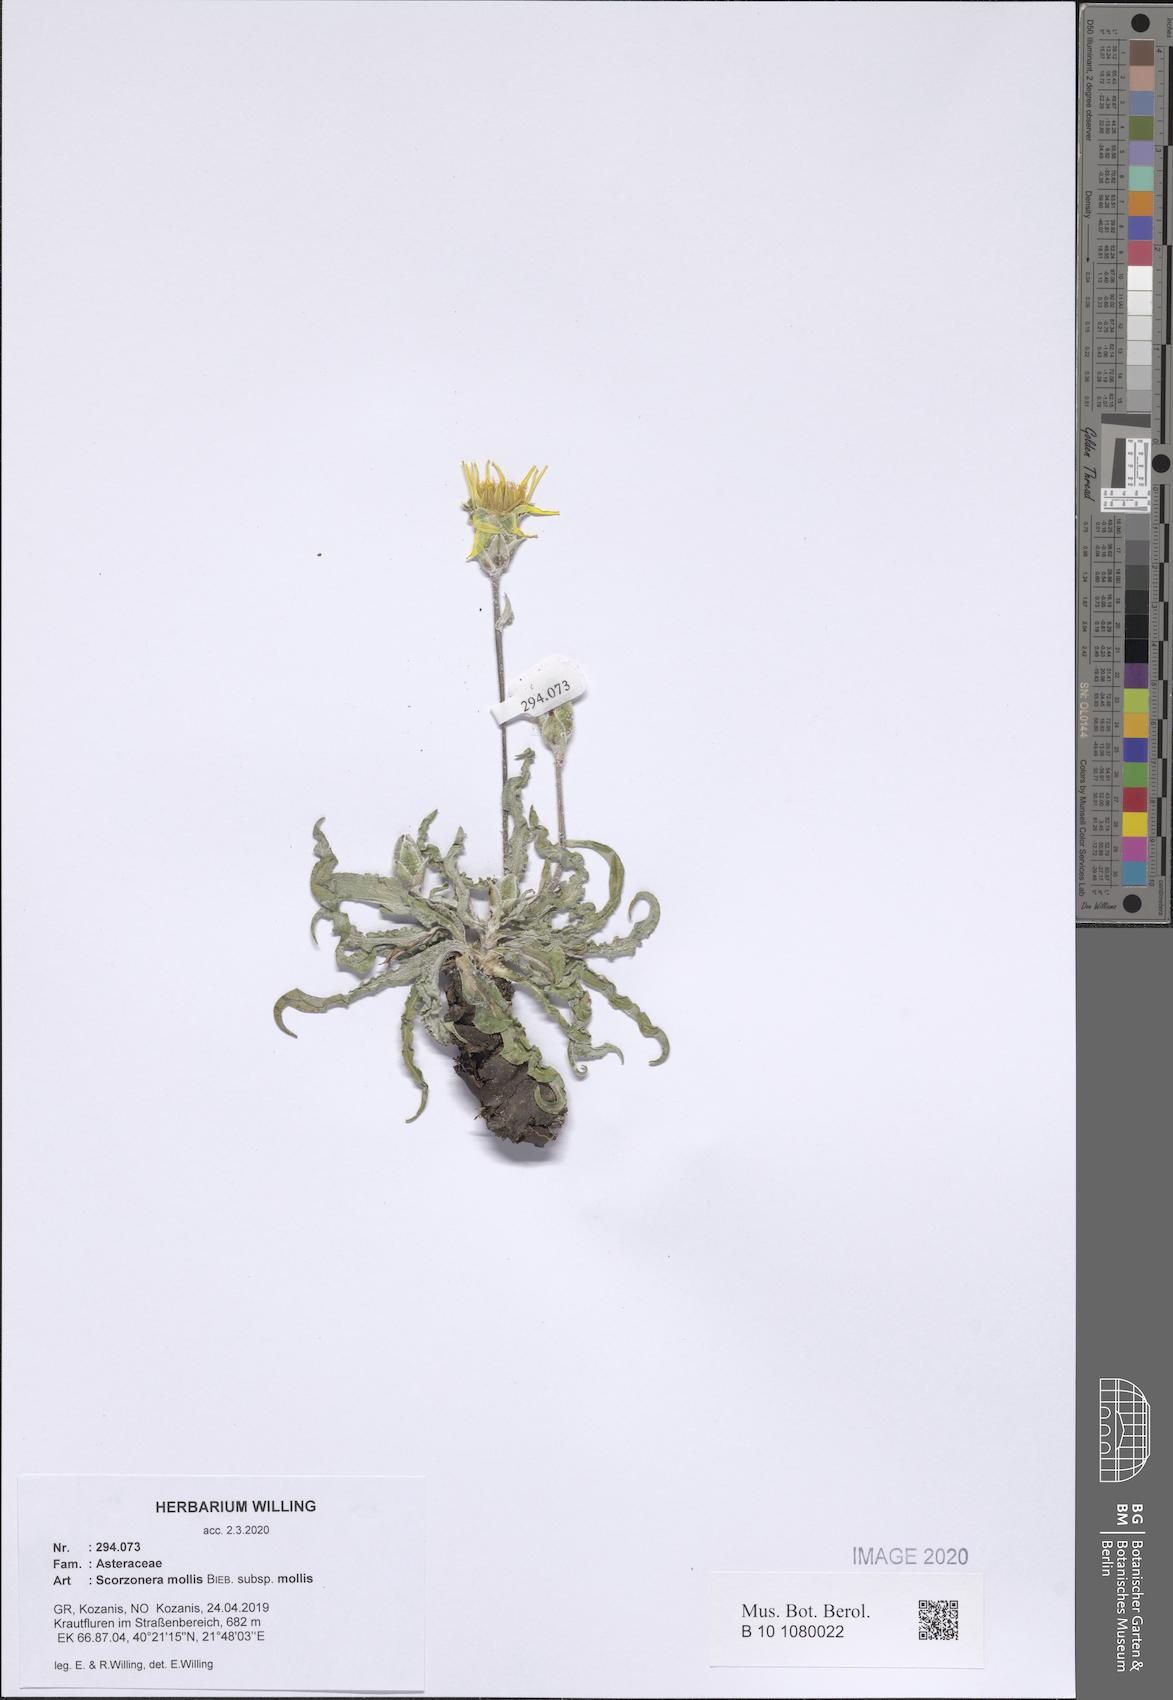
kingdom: Plantae
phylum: Tracheophyta
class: Magnoliopsida
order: Asterales
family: Asteraceae
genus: Candollea
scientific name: Candollea mollis
